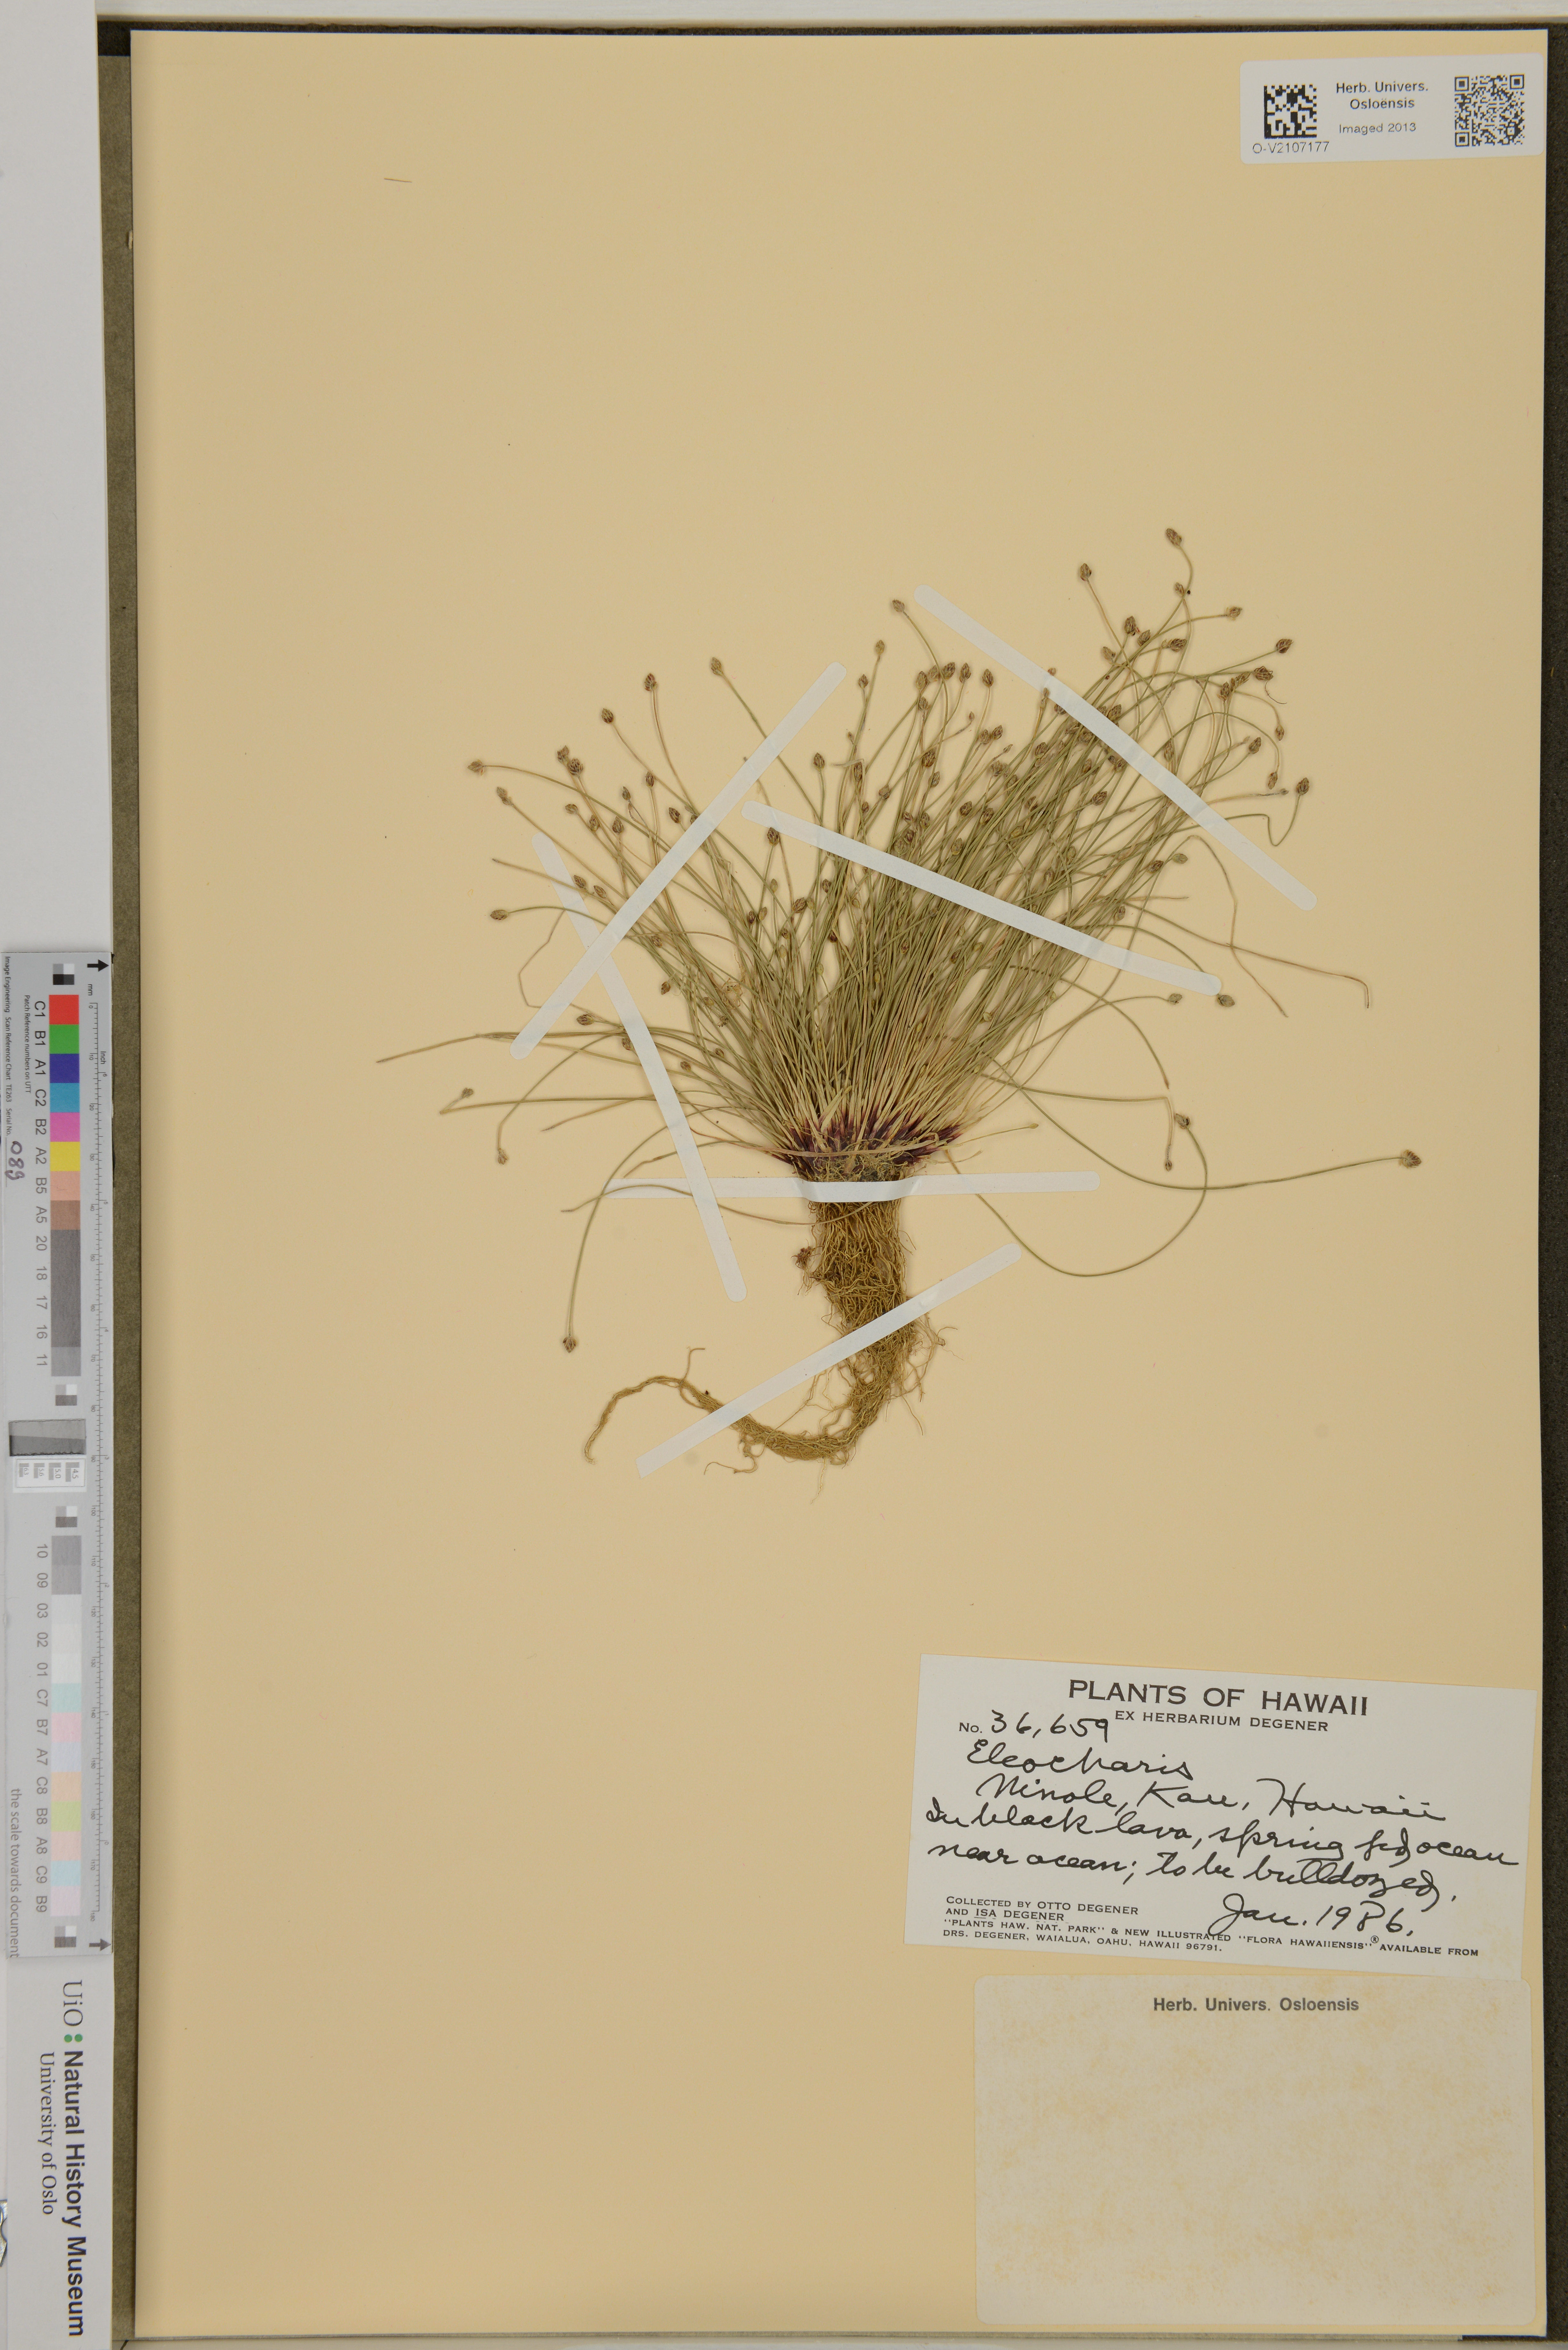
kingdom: Plantae
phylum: Tracheophyta
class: Liliopsida
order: Poales
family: Cyperaceae
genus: Eleocharis
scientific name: Eleocharis
